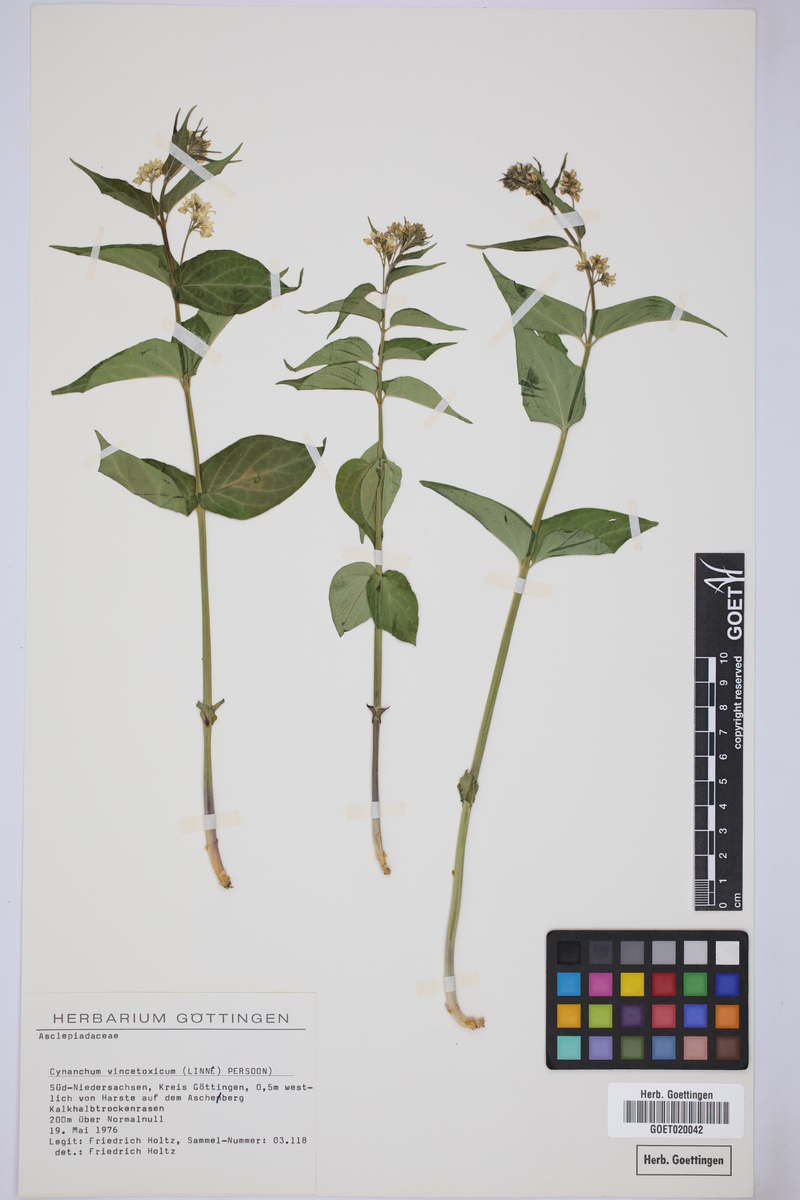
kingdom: Plantae
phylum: Tracheophyta
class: Magnoliopsida
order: Gentianales
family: Apocynaceae
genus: Vincetoxicum
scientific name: Vincetoxicum hirundinaria
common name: White swallowwort
